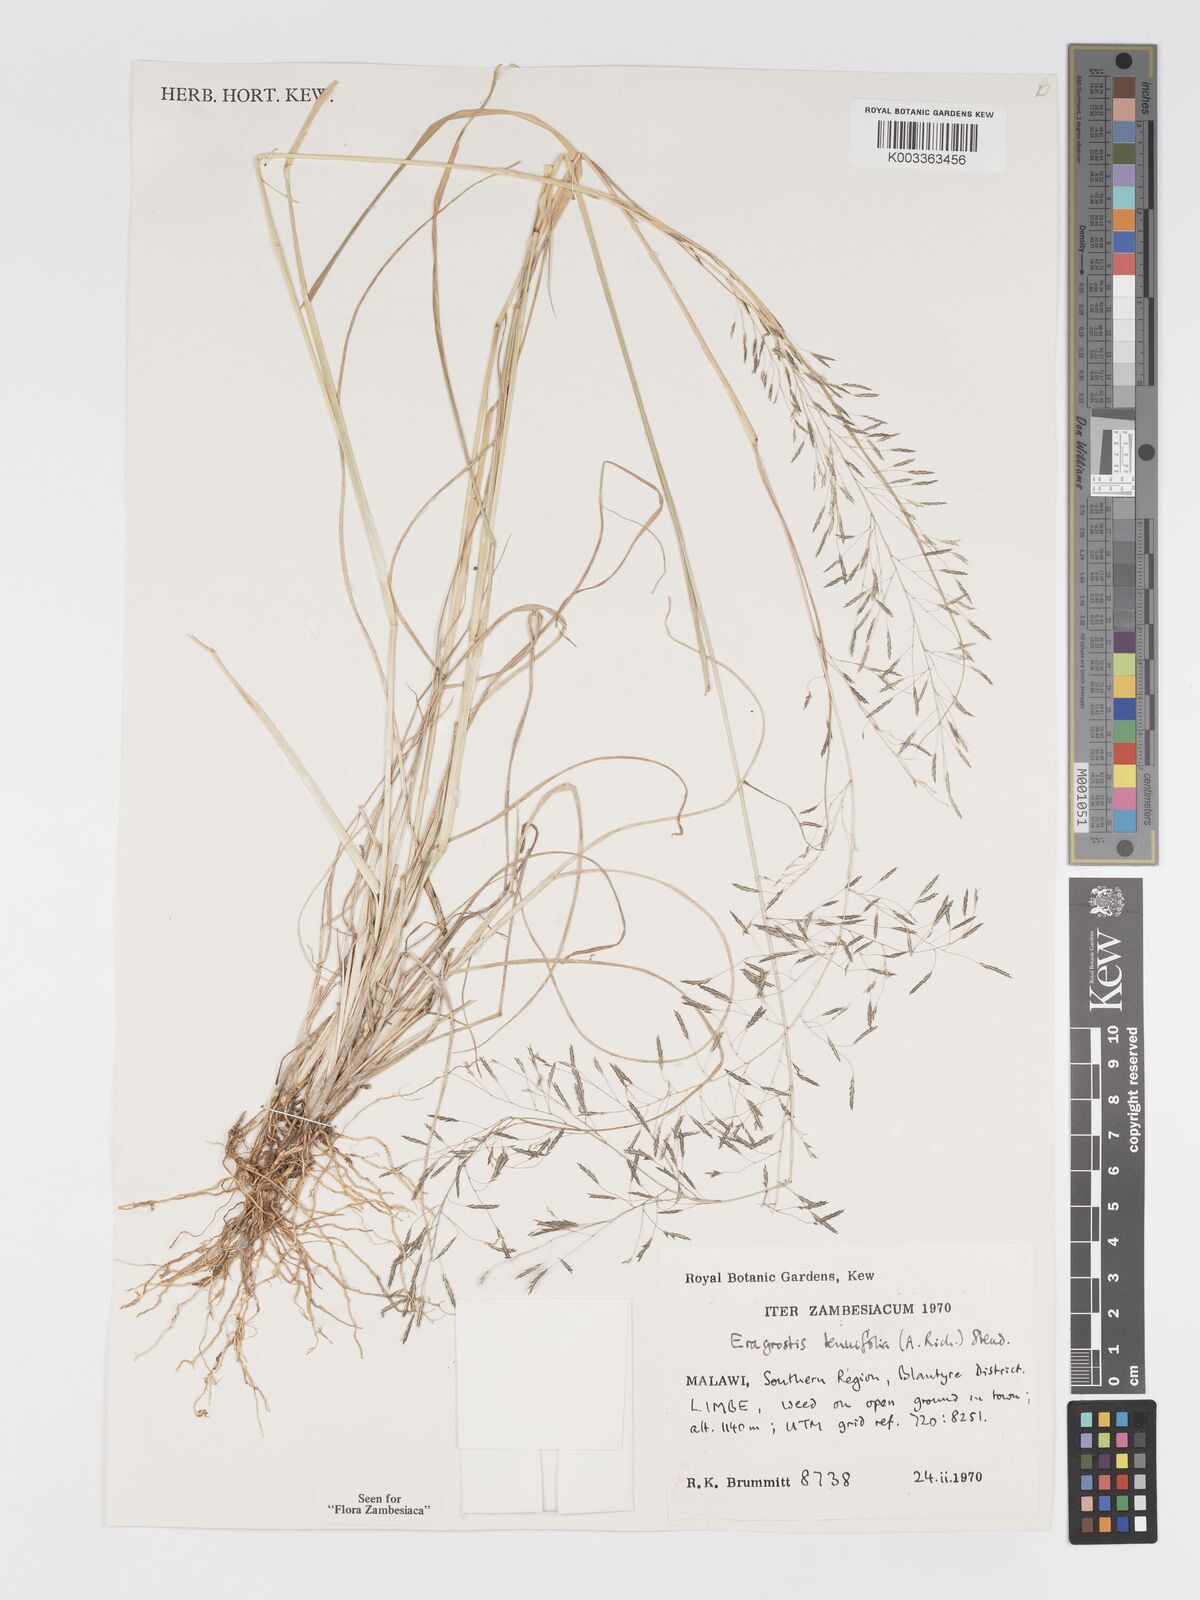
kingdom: Plantae
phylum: Tracheophyta
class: Liliopsida
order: Poales
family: Poaceae
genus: Eragrostis
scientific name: Eragrostis tenuifolia
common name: Elastic grass
